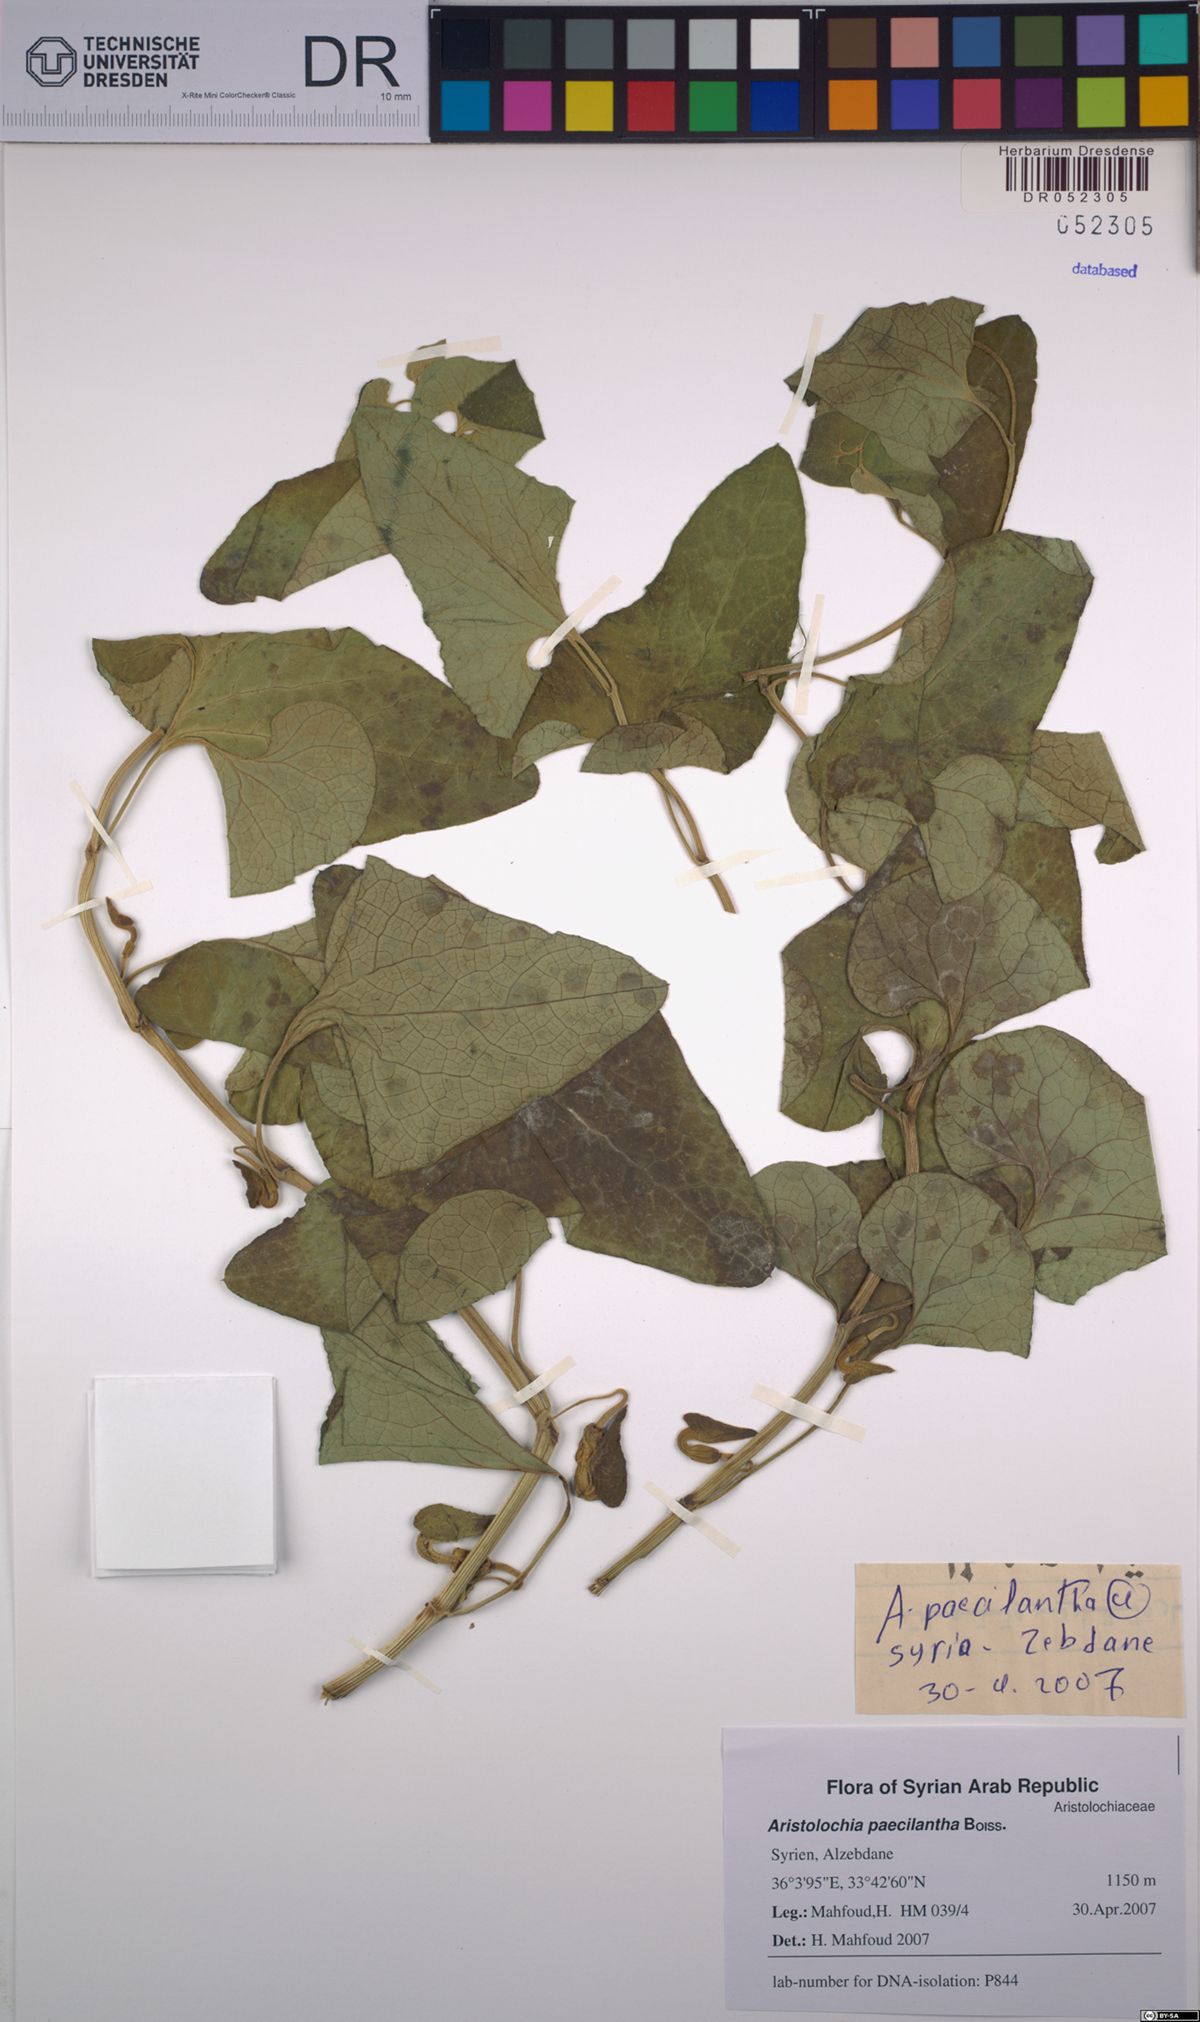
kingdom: Plantae
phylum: Tracheophyta
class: Magnoliopsida
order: Piperales
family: Aristolochiaceae
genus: Aristolochia
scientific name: Aristolochia paecilantha
